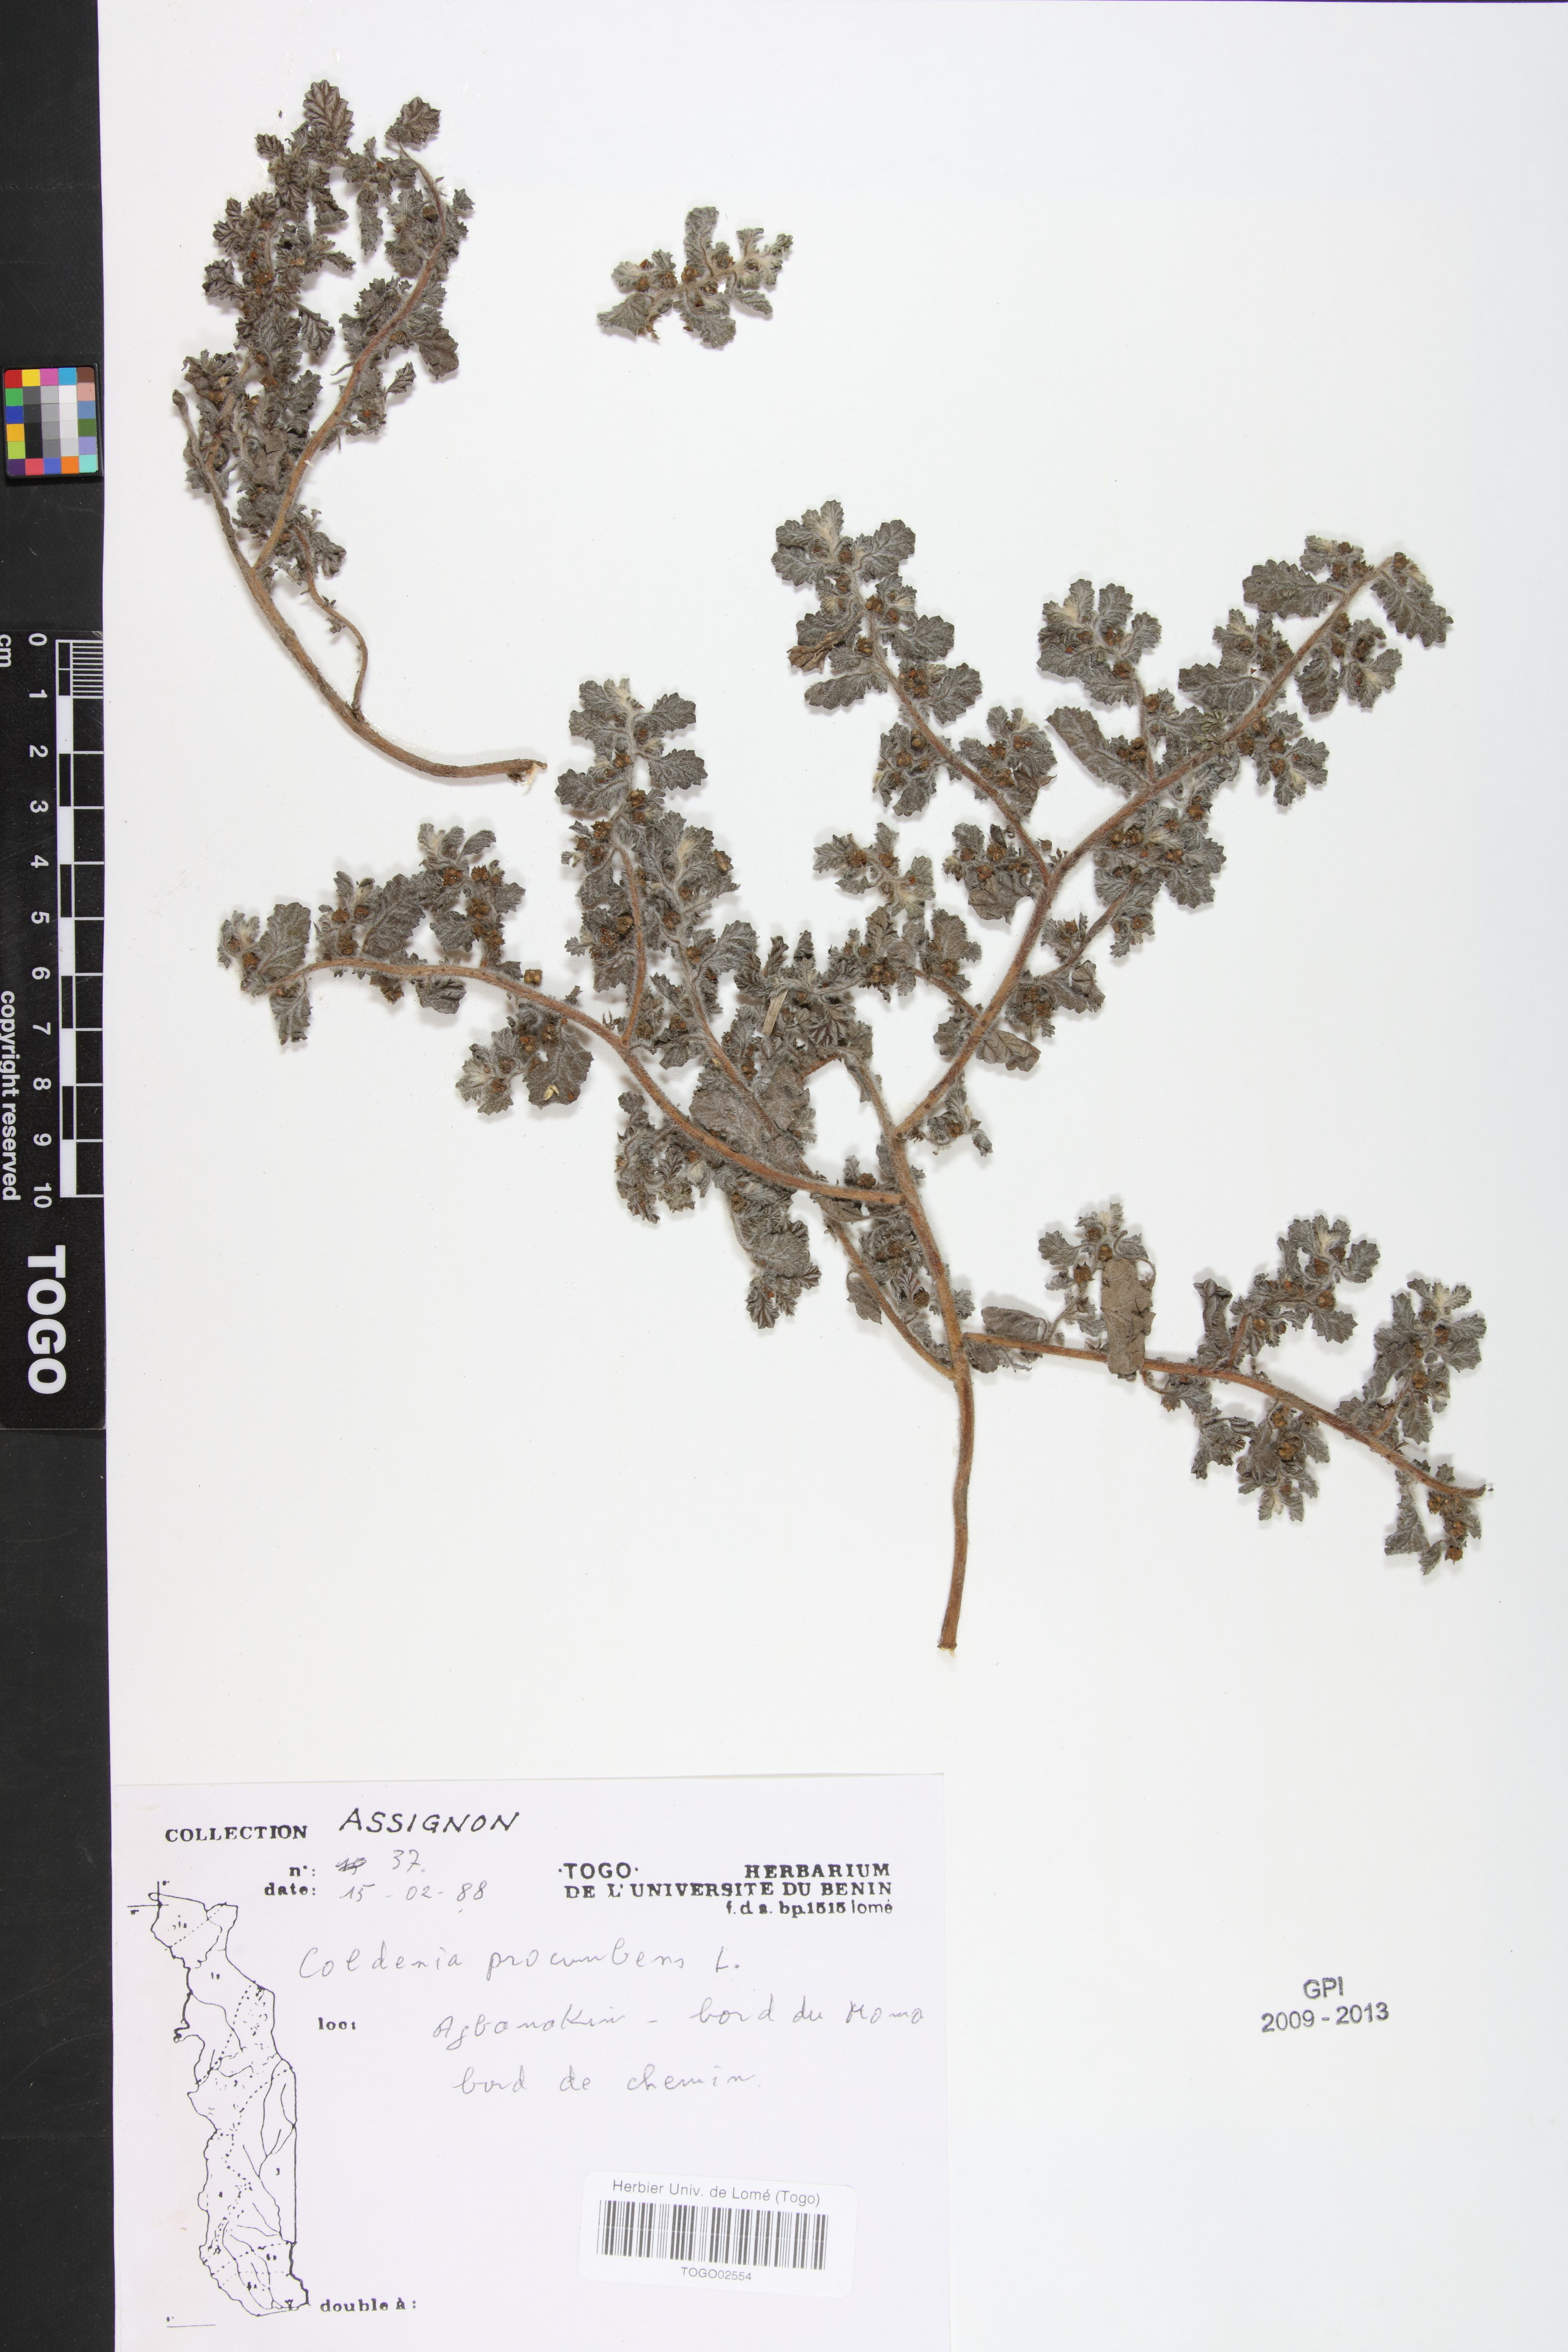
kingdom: Plantae
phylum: Tracheophyta
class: Magnoliopsida
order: Boraginales
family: Coldeniaceae
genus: Coldenia
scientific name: Coldenia procumbens
